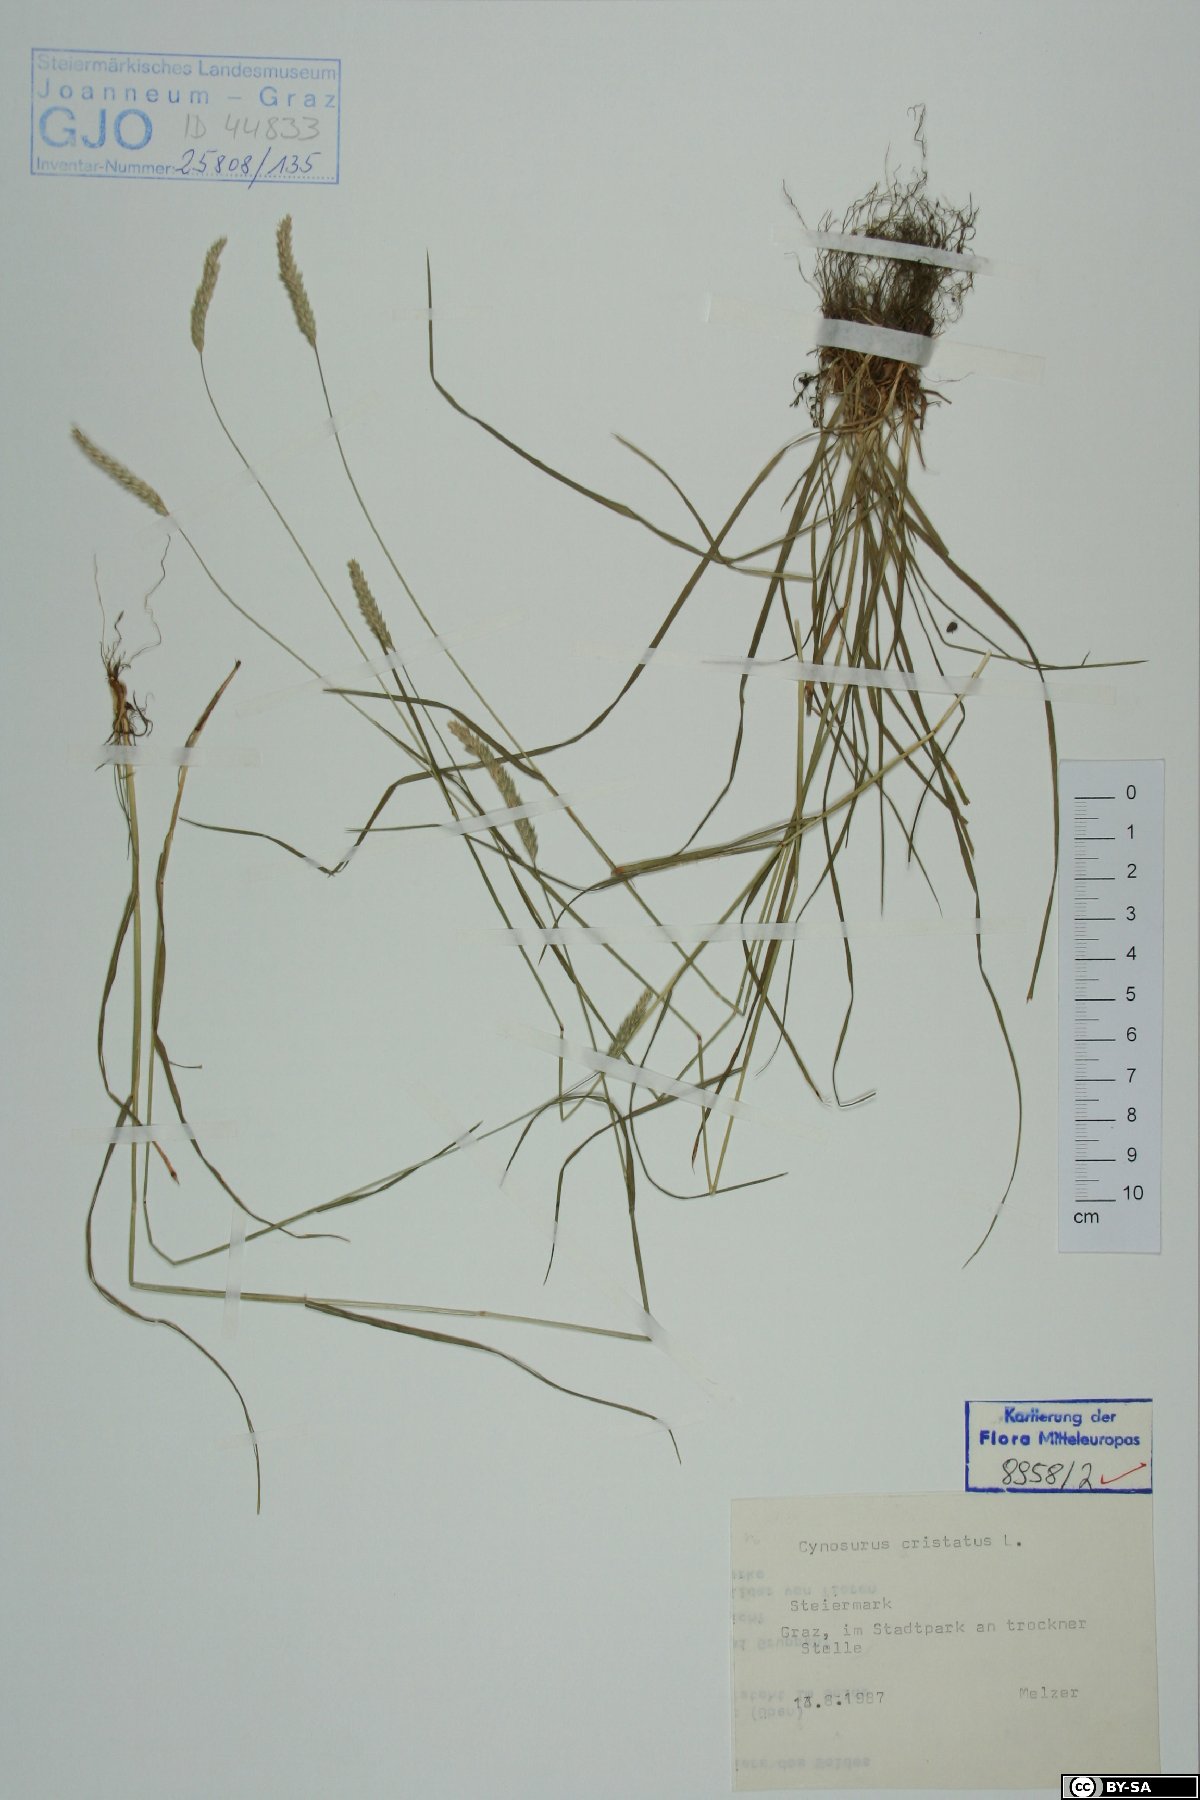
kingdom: Plantae
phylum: Tracheophyta
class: Liliopsida
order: Poales
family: Poaceae
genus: Cynosurus
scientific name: Cynosurus cristatus
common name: Crested dog's-tail
